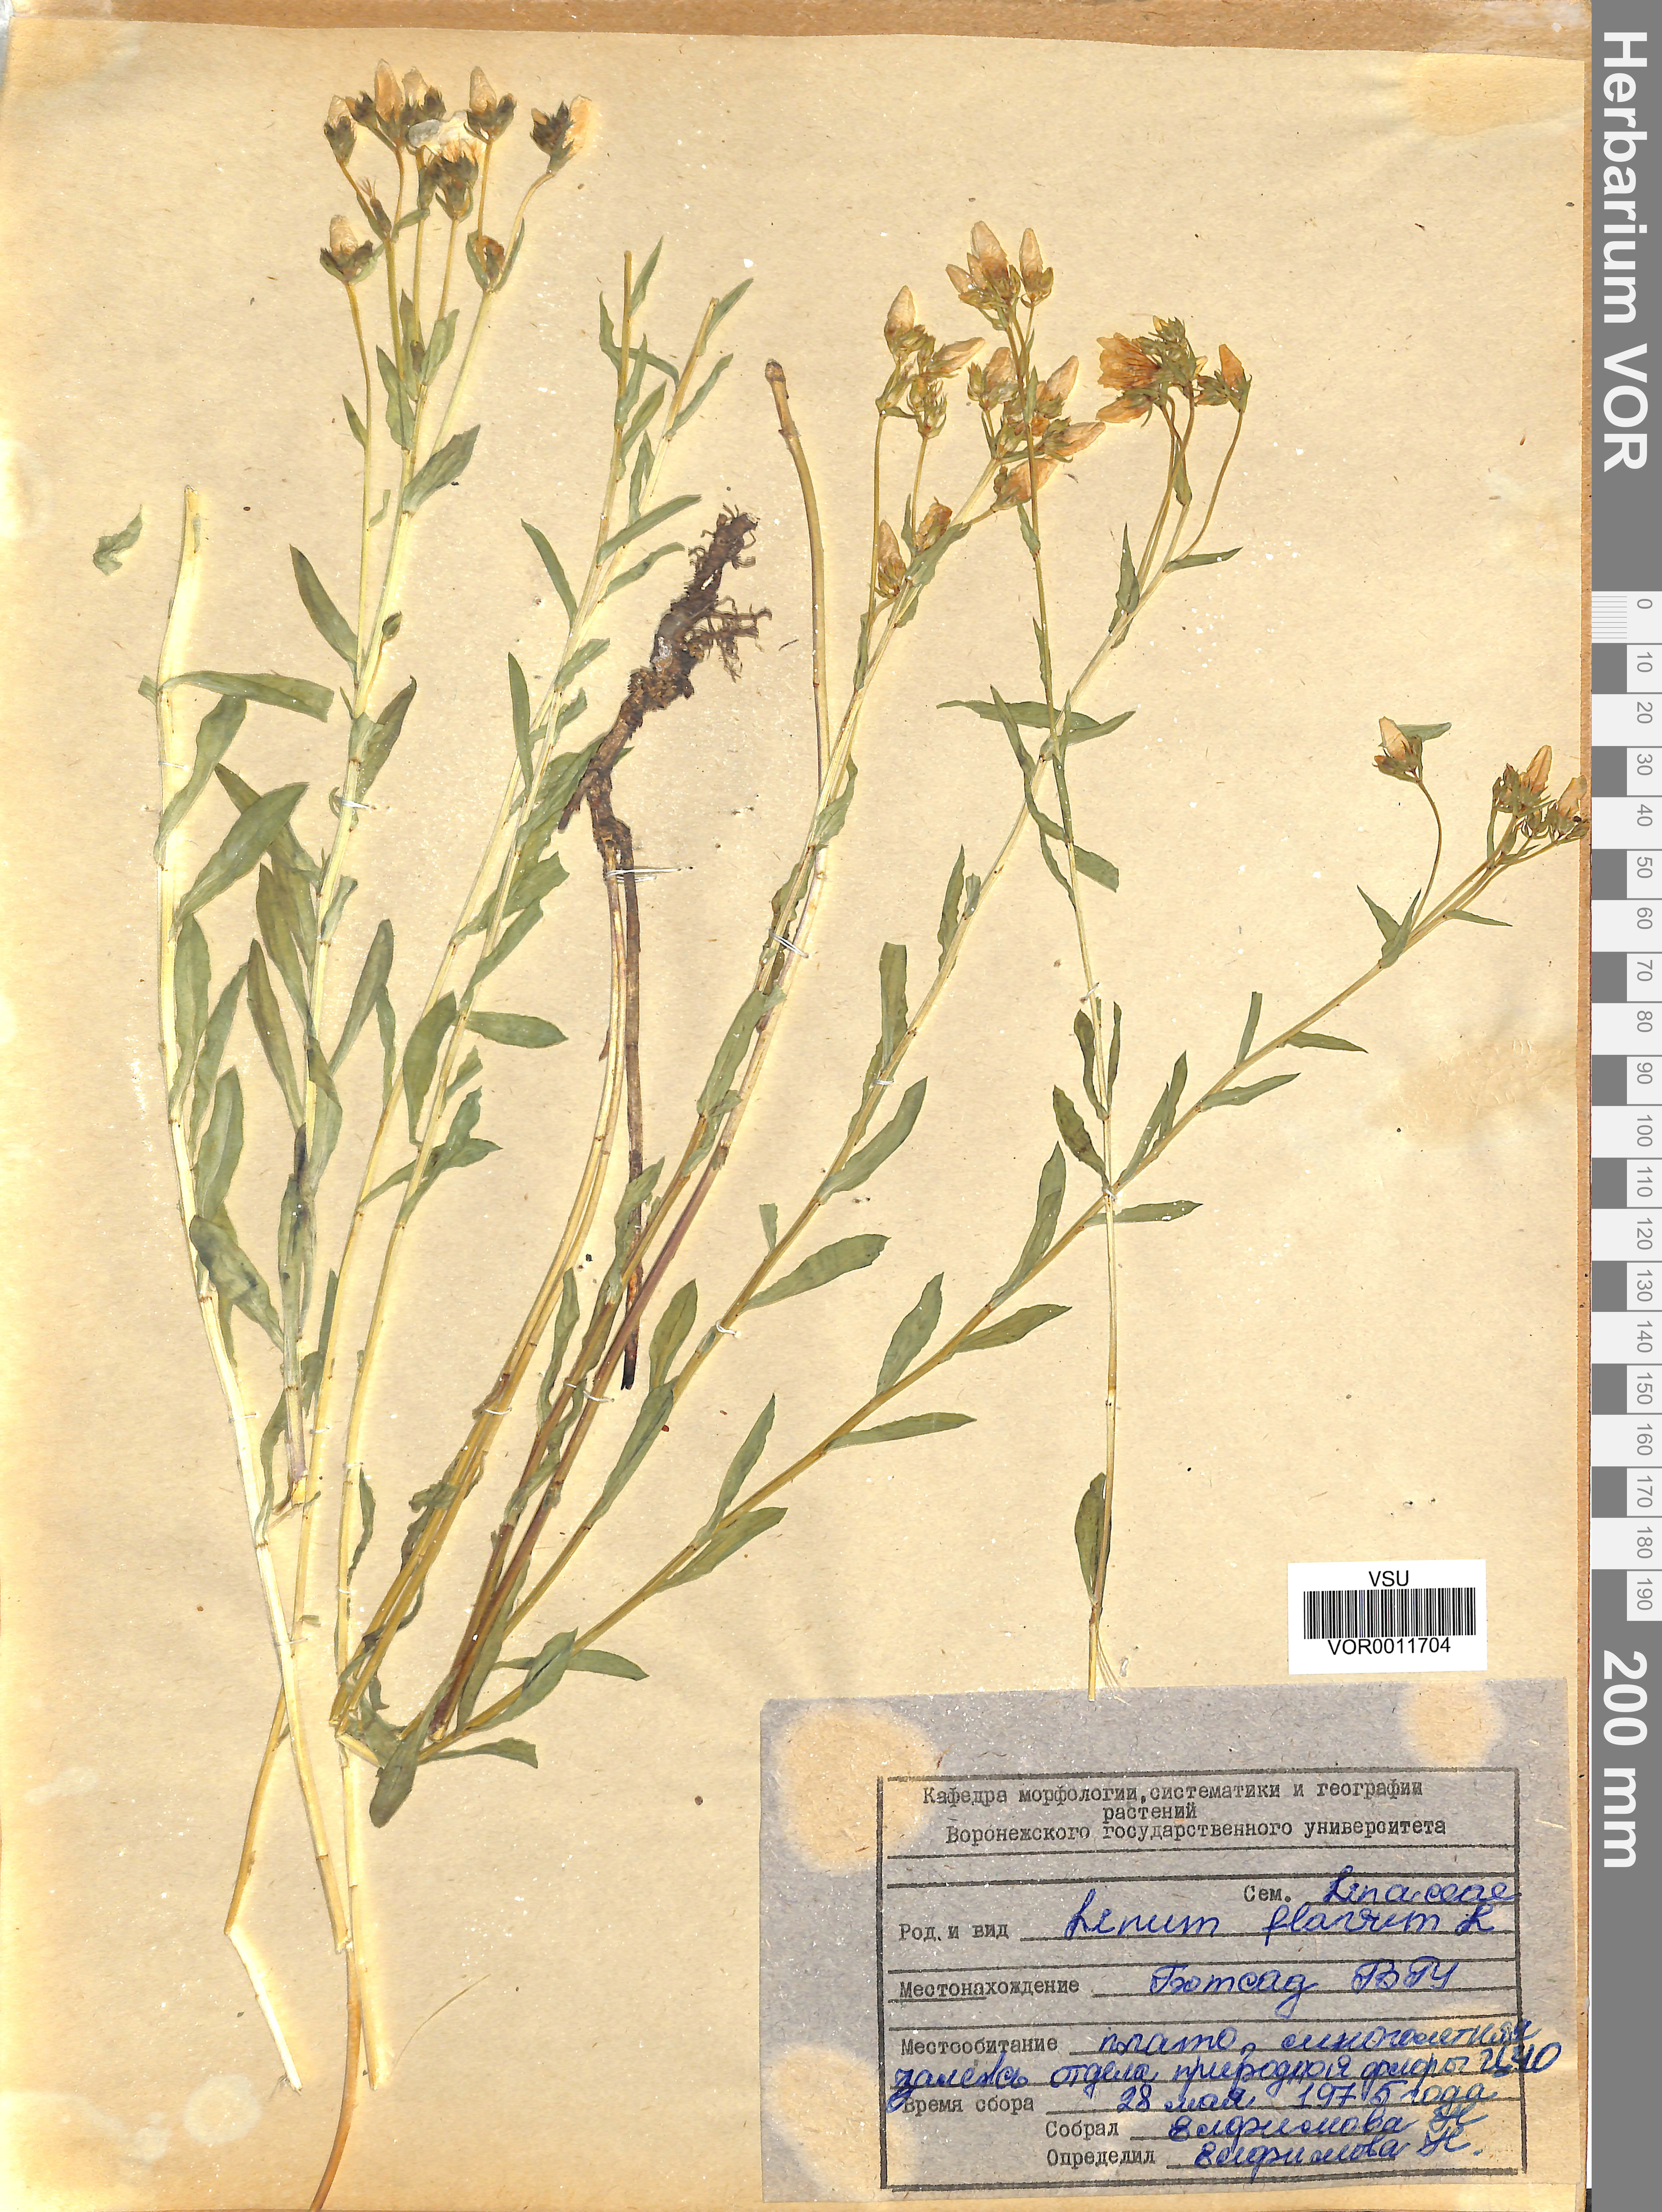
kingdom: Plantae
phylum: Tracheophyta
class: Magnoliopsida
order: Malpighiales
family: Linaceae
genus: Linum
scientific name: Linum flavum
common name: Yellow flax
